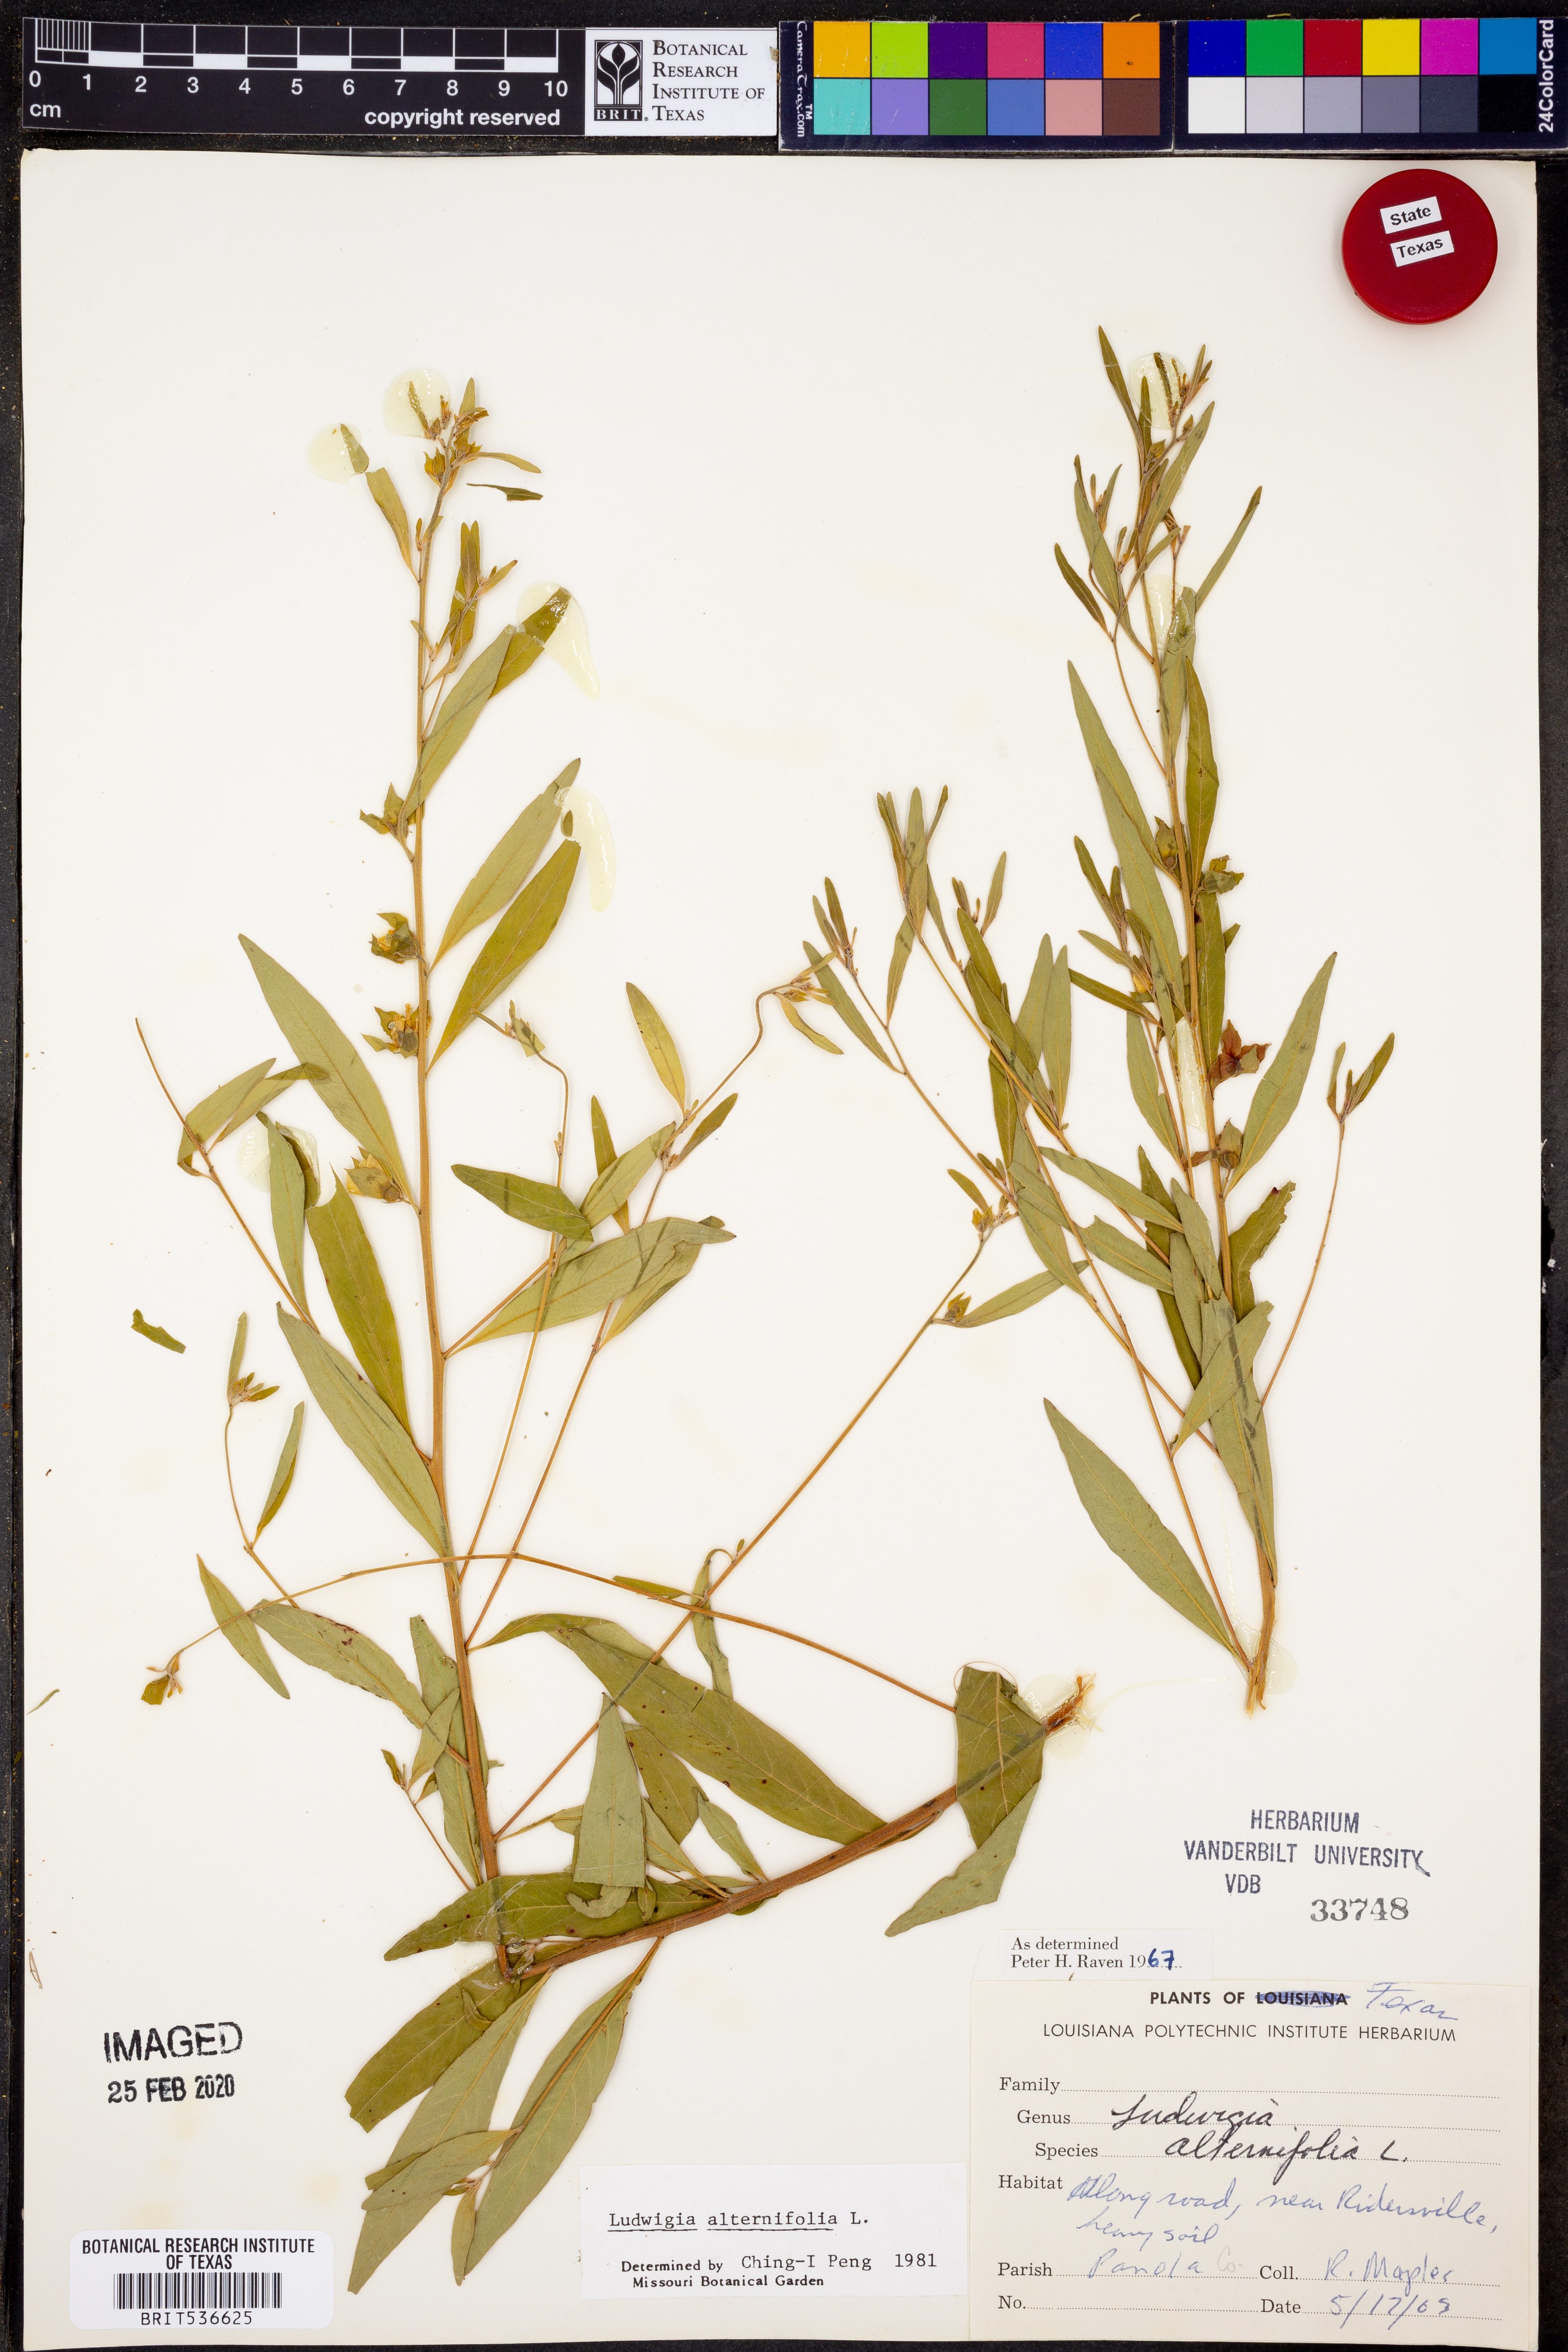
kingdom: Plantae
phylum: Tracheophyta
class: Magnoliopsida
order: Myrtales
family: Onagraceae
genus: Ludwigia
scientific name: Ludwigia alternifolia
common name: Rattlebox
